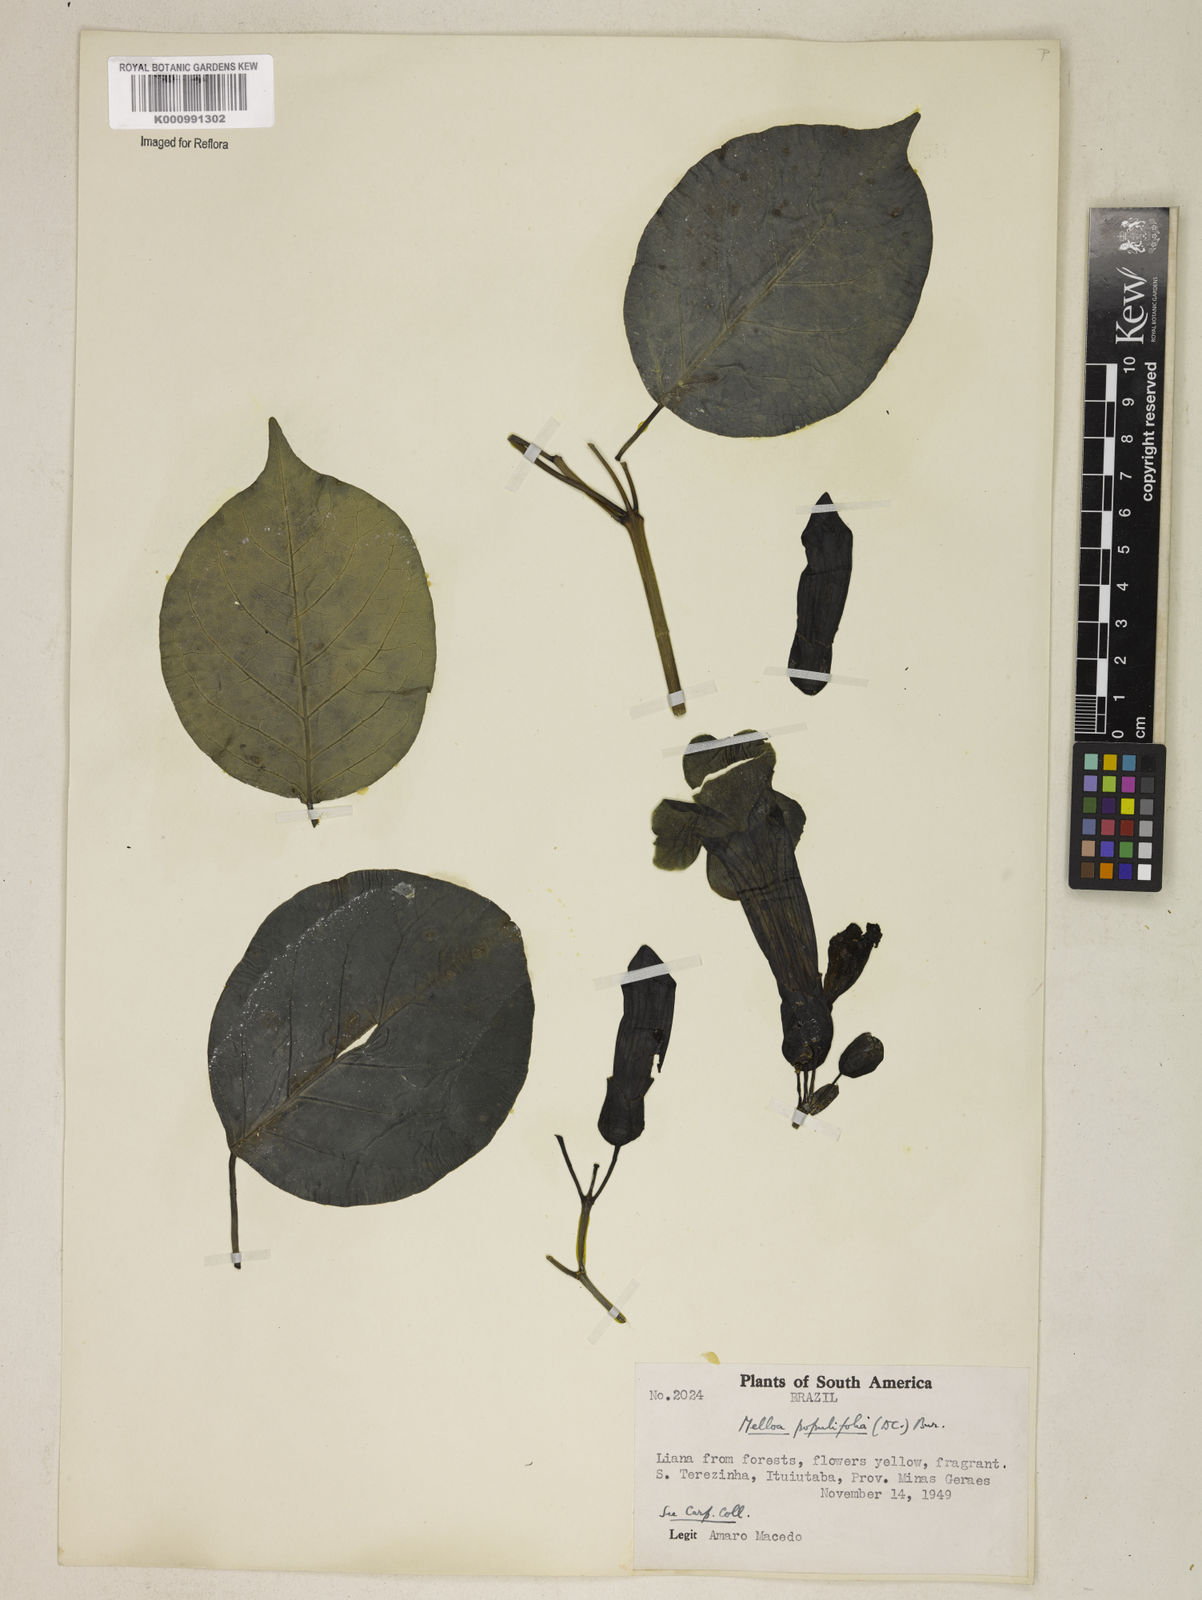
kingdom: Plantae
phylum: Tracheophyta
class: Magnoliopsida
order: Lamiales
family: Bignoniaceae
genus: Dolichandra
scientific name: Dolichandra quadrivalvis
